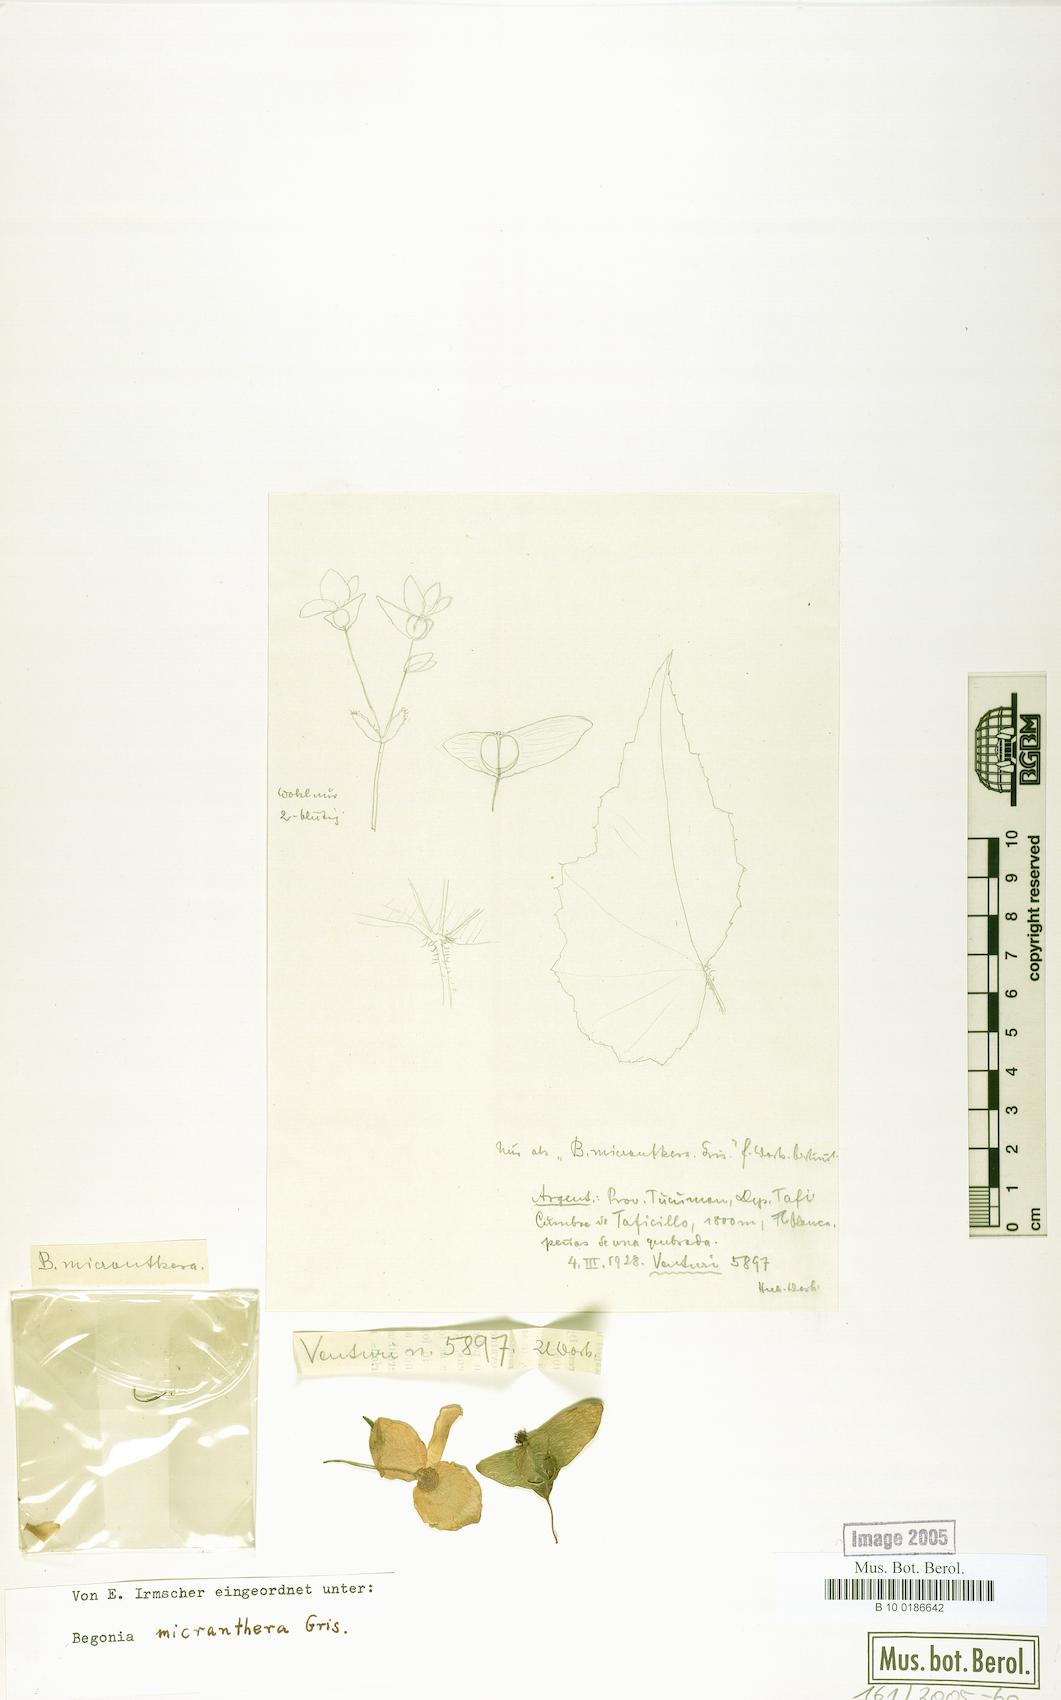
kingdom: Plantae
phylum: Tracheophyta
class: Magnoliopsida
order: Cucurbitales
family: Begoniaceae
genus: Begonia
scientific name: Begonia micranthera
